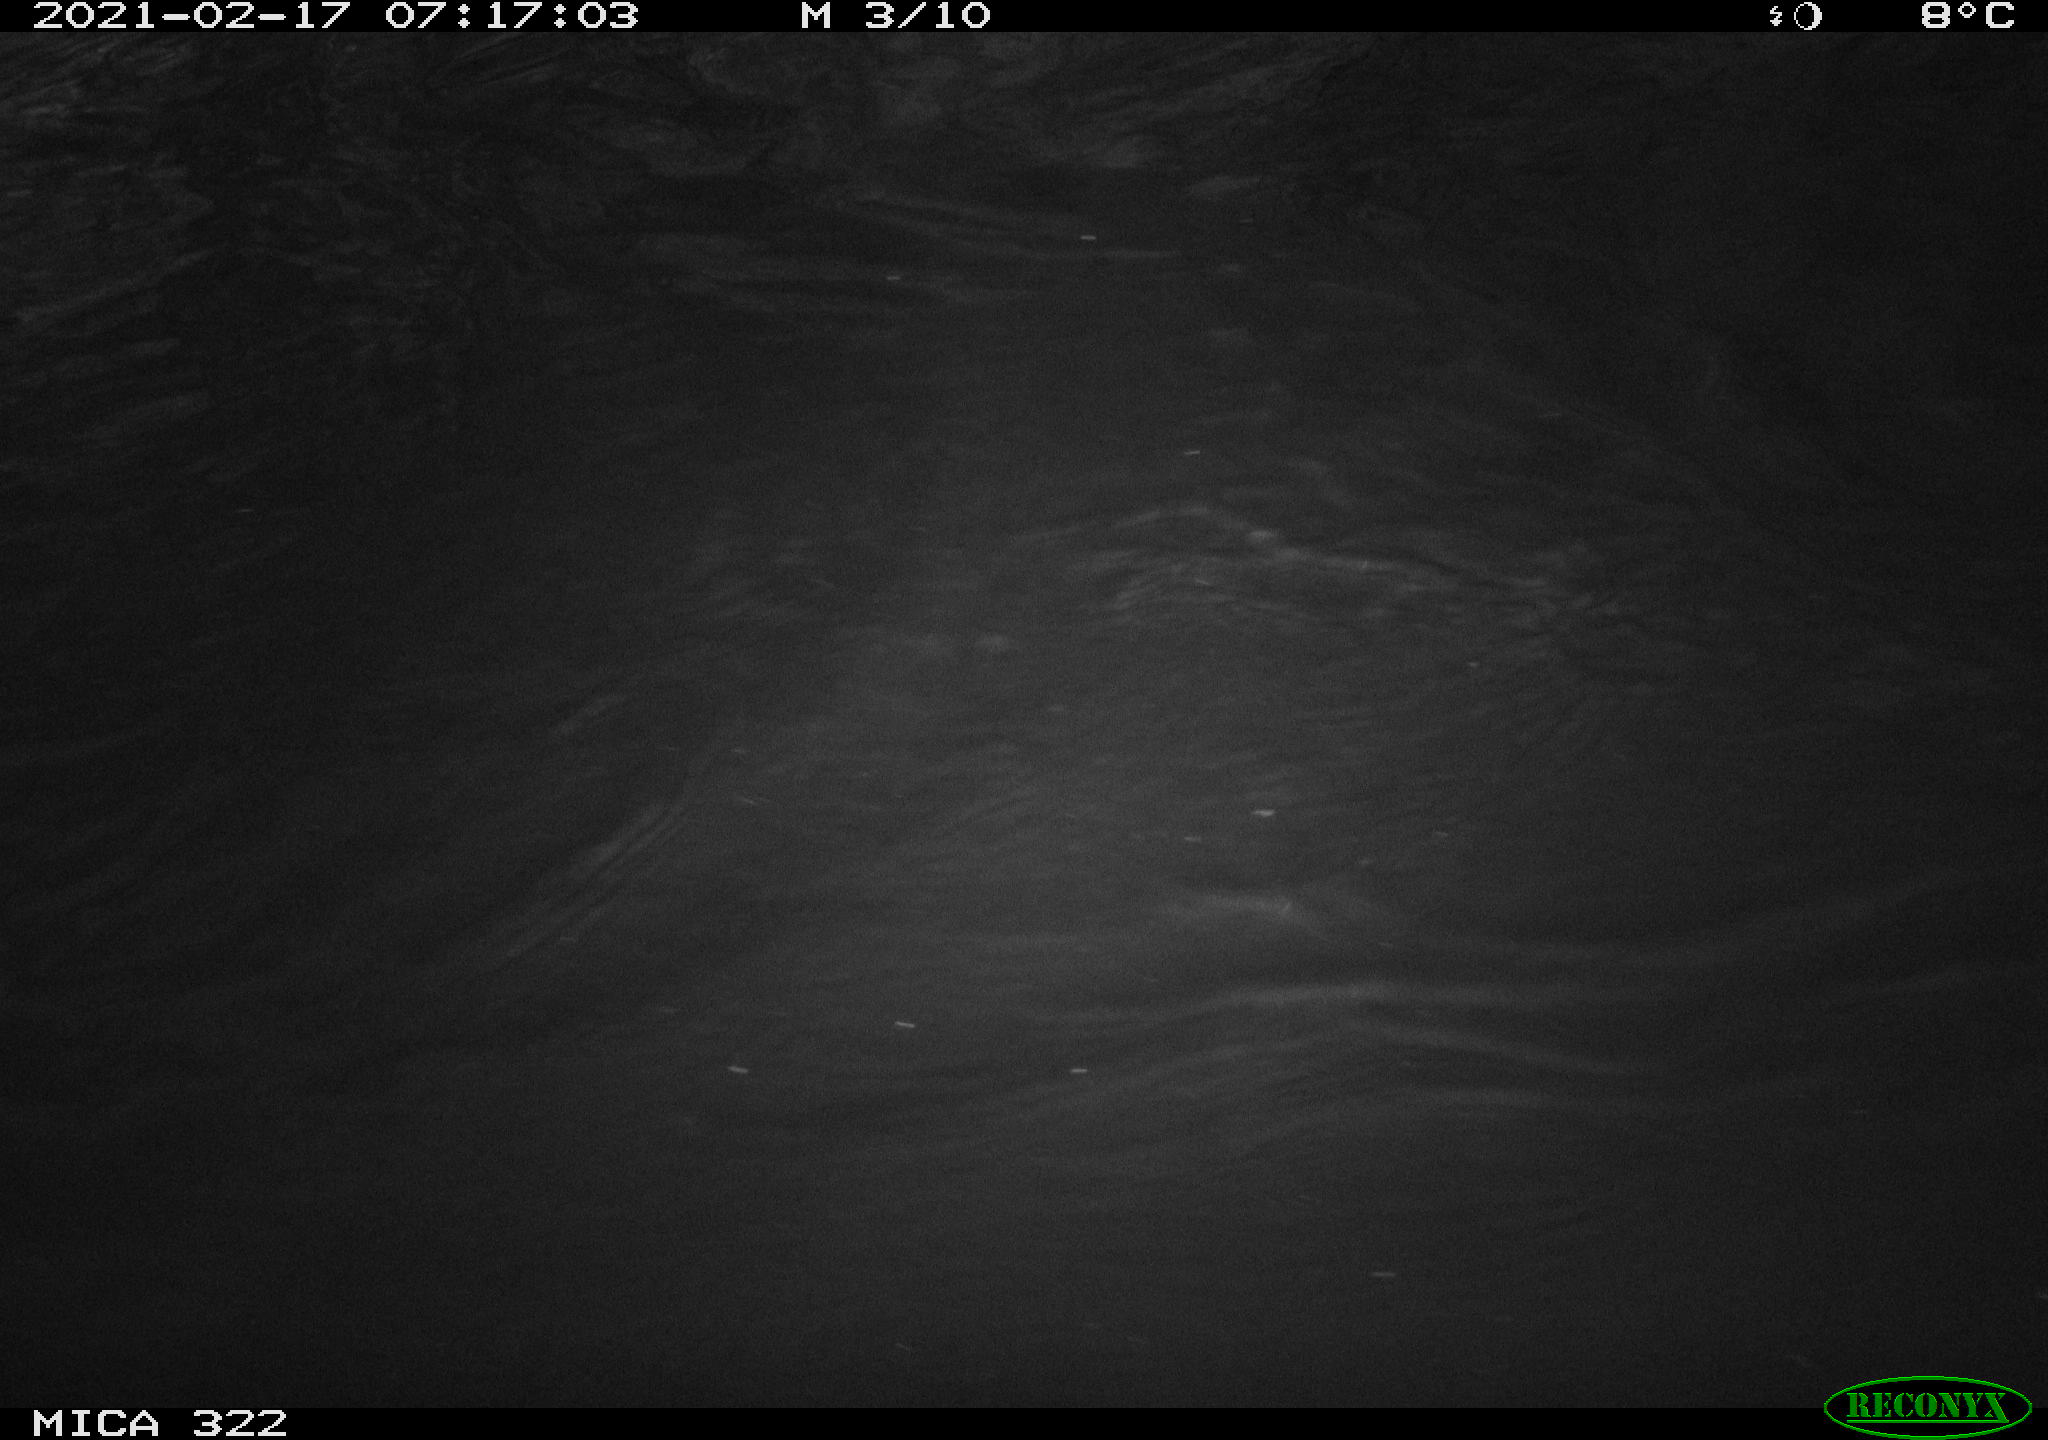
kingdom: Animalia
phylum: Chordata
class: Aves
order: Anseriformes
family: Anatidae
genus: Anas
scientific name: Anas platyrhynchos
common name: Mallard
